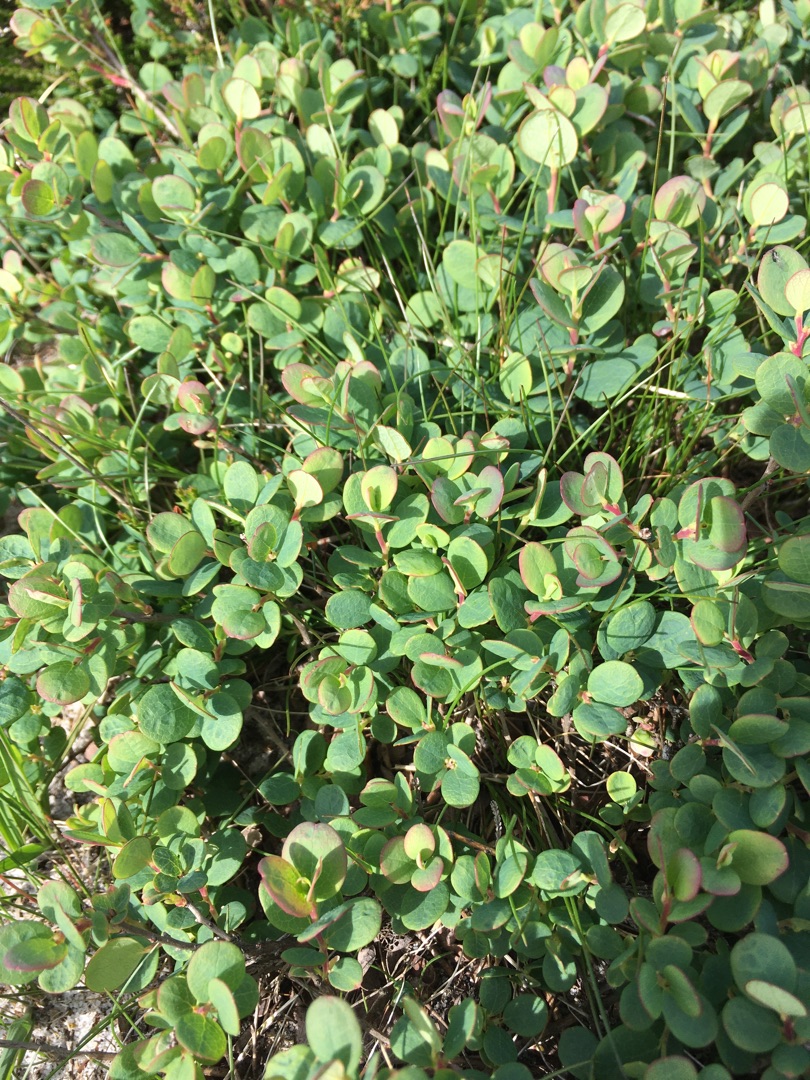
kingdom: Plantae
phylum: Tracheophyta
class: Magnoliopsida
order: Ericales
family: Ericaceae
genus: Vaccinium
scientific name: Vaccinium uliginosum
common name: Mose-bølle
